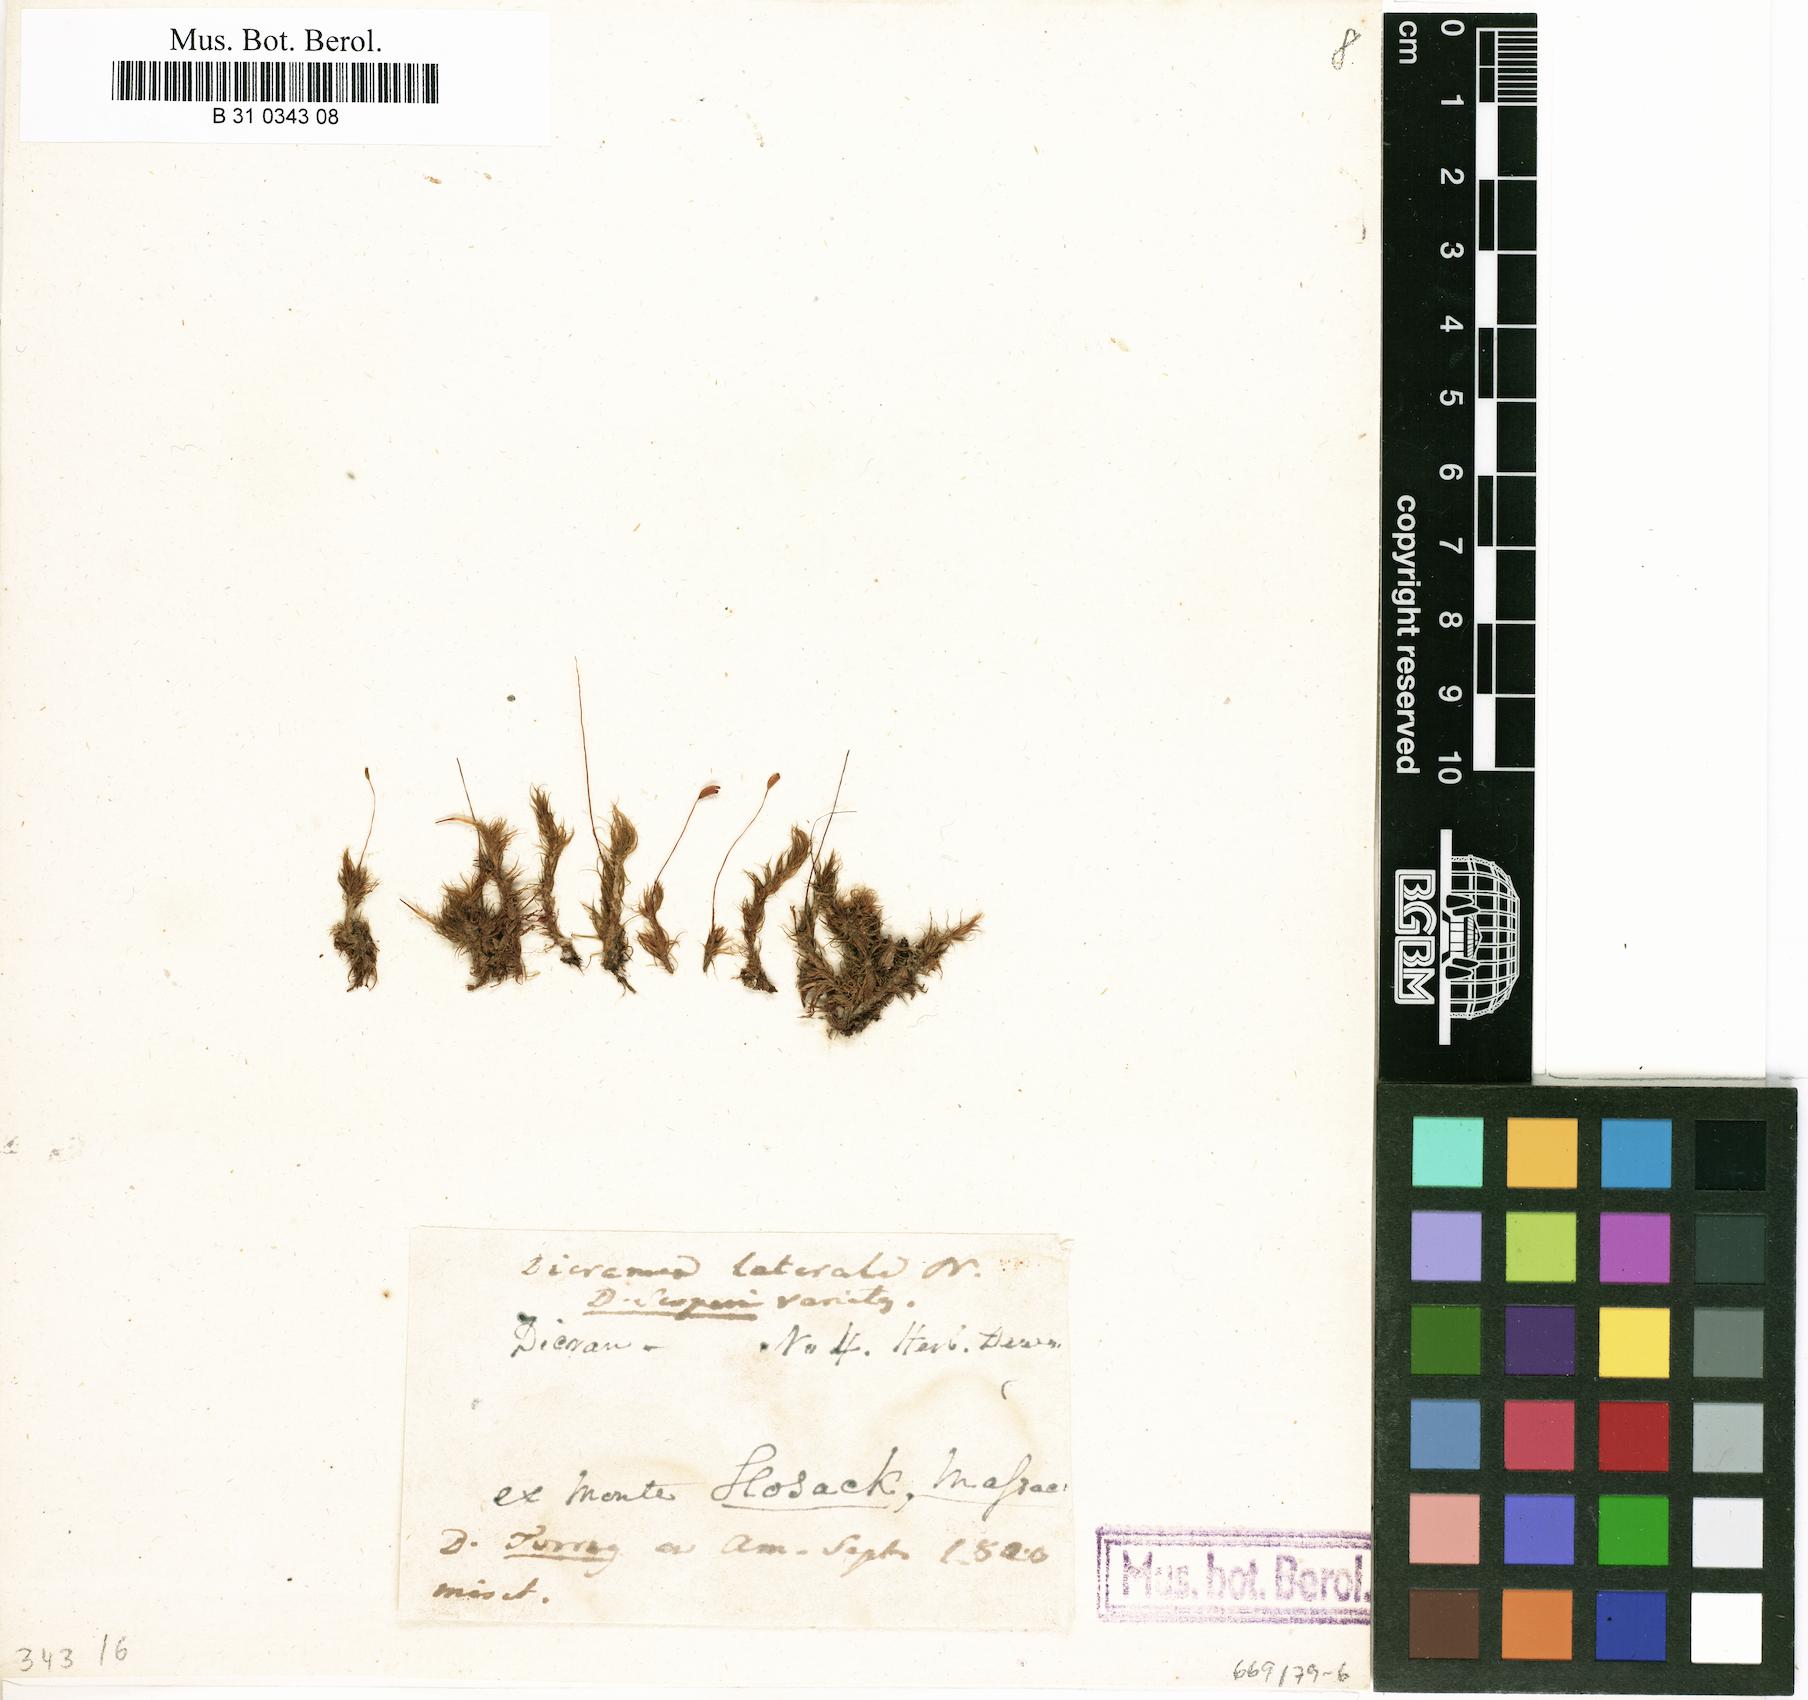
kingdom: Plantae
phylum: Bryophyta
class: Bryopsida
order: Dicranales
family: Dicranaceae
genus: Dicranum
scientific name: Dicranum scoparium
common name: Broom fork-moss
